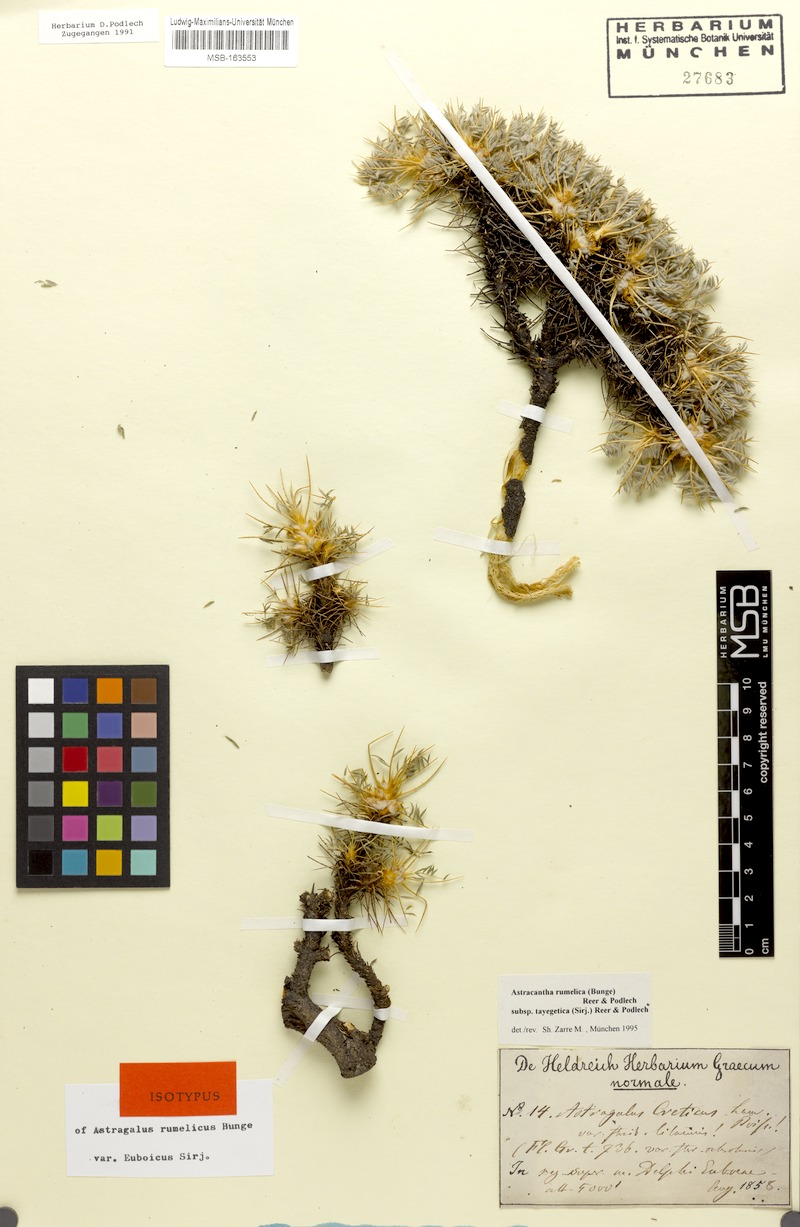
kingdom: Plantae
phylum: Tracheophyta
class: Magnoliopsida
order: Fabales
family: Fabaceae
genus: Astragalus
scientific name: Astragalus rumelicus
